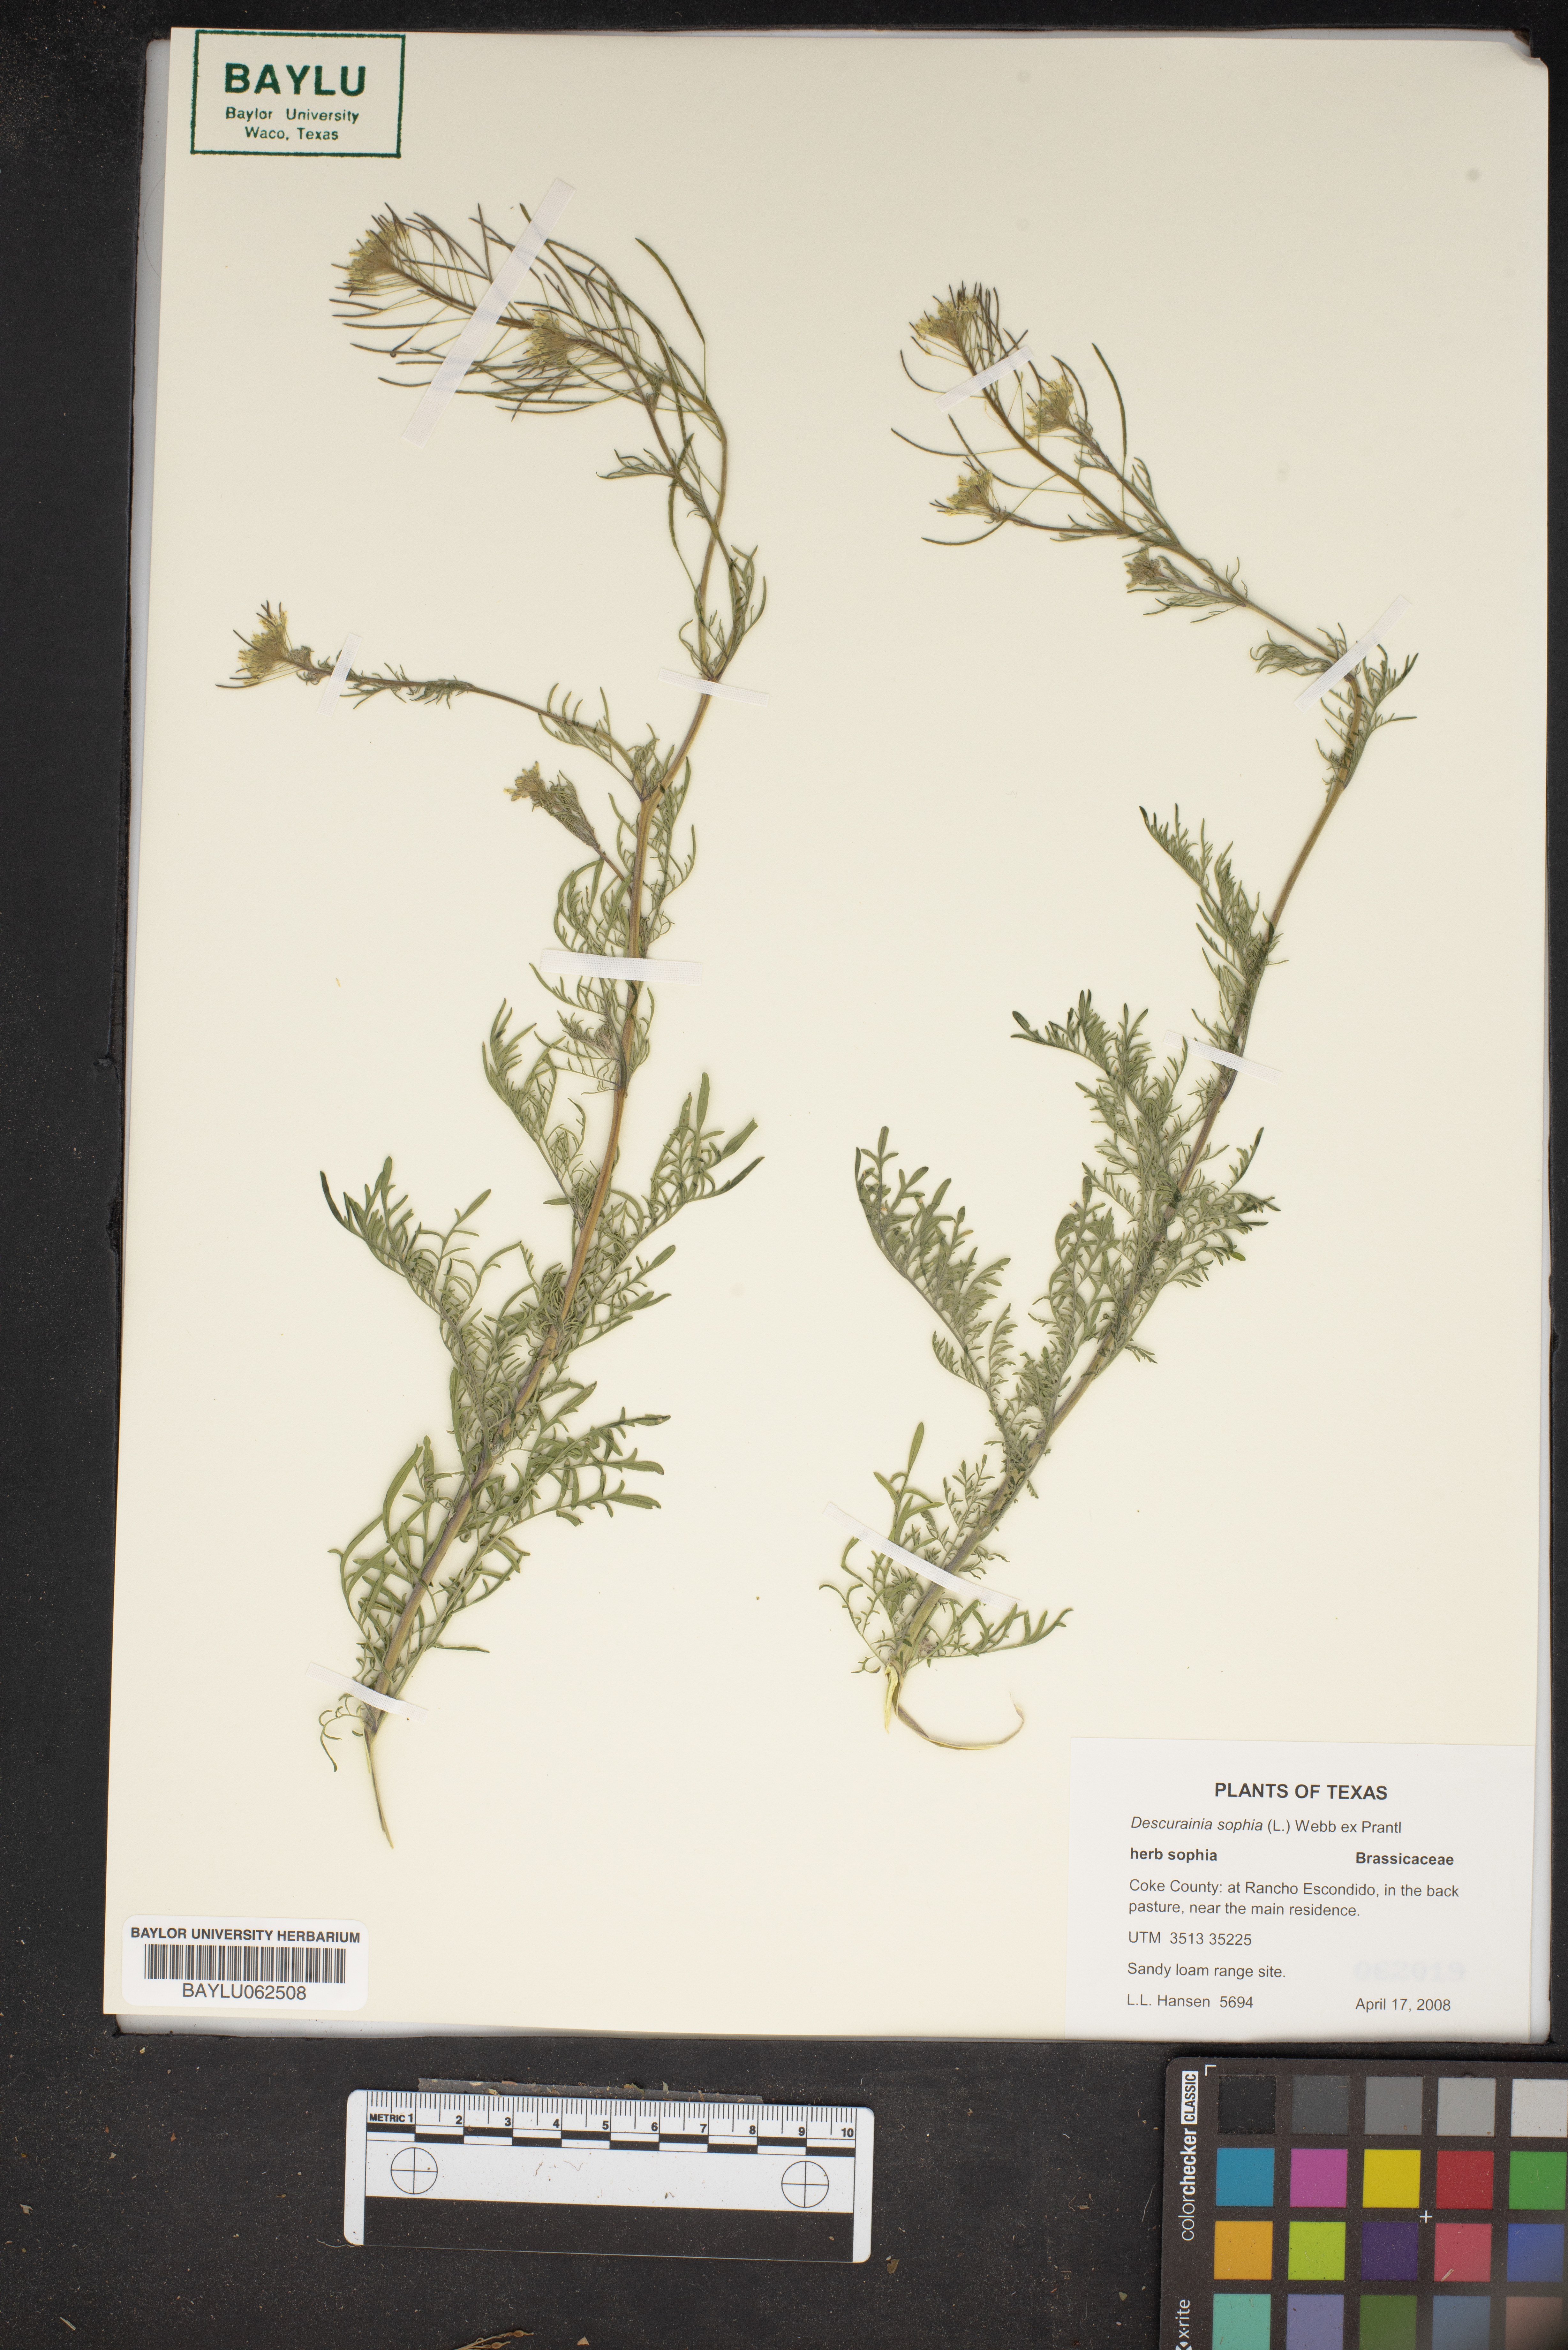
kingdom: Plantae
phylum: Tracheophyta
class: Magnoliopsida
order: Brassicales
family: Brassicaceae
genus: Descurainia
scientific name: Descurainia sophia
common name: Flixweed
